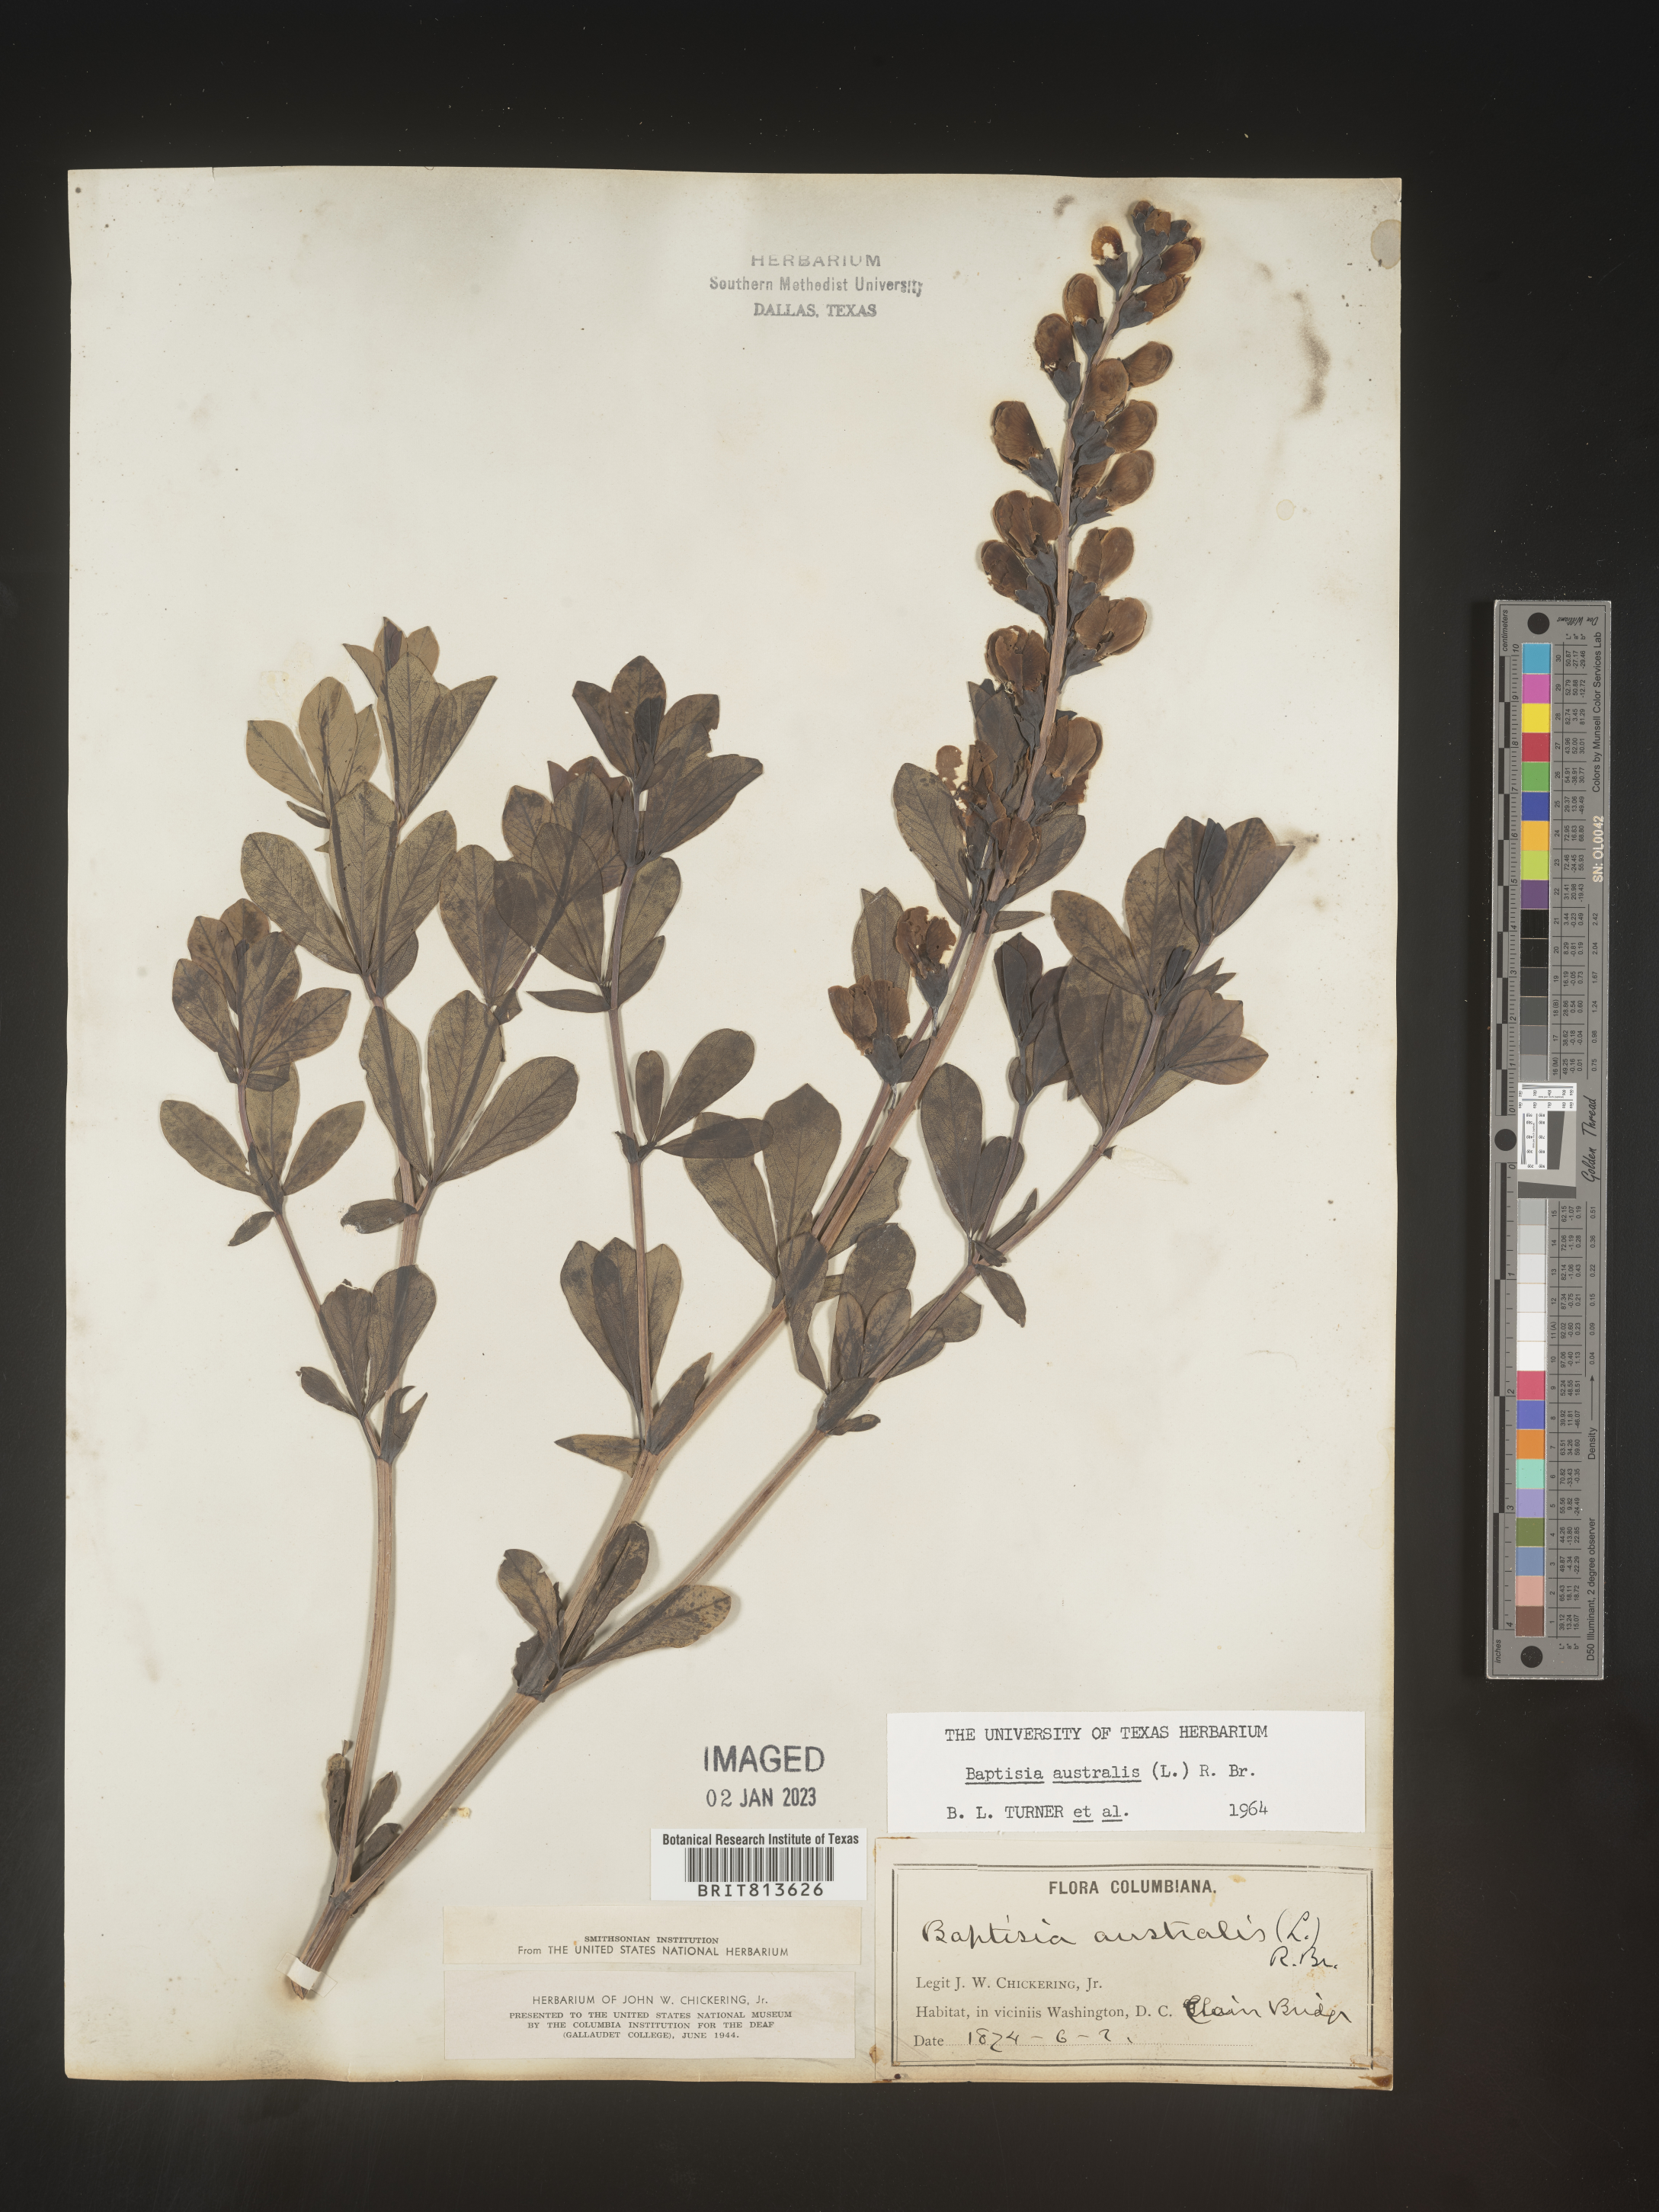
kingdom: Plantae
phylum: Tracheophyta
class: Magnoliopsida
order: Fabales
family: Fabaceae
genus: Baptisia
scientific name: Baptisia australis
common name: Blue false indigo
